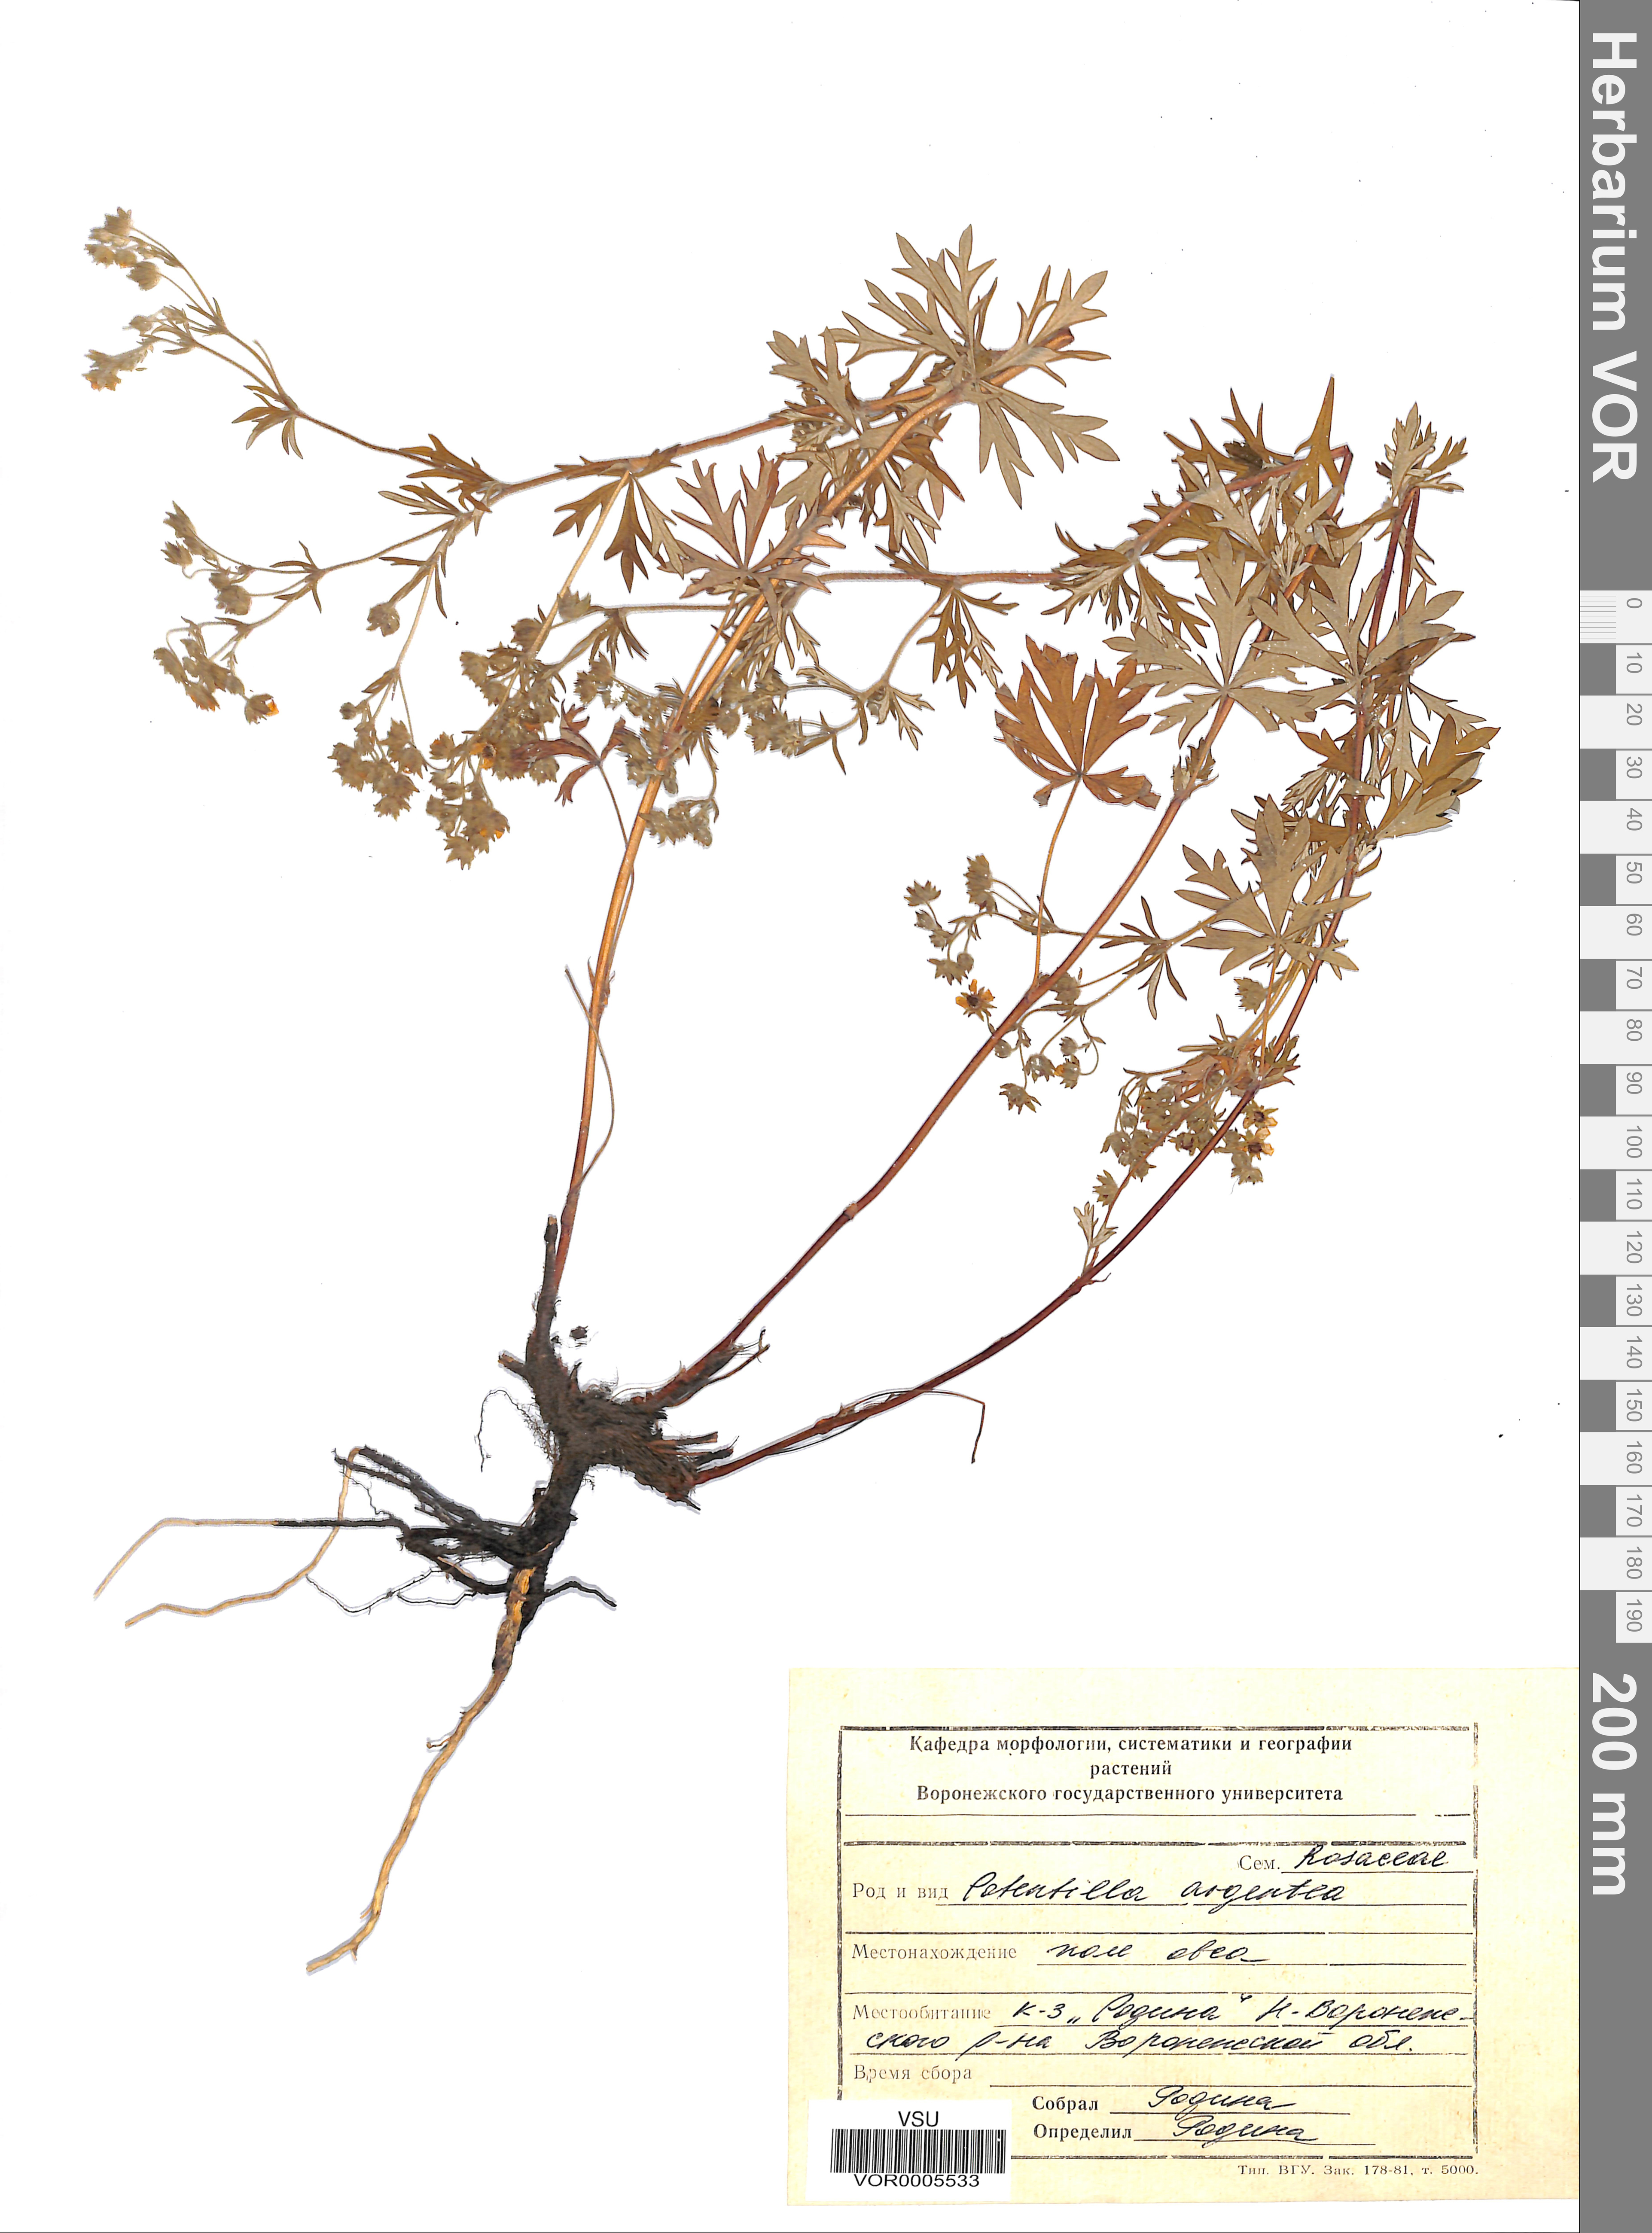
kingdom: Plantae
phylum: Tracheophyta
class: Magnoliopsida
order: Rosales
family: Rosaceae
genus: Potentilla
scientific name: Potentilla argentea
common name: Hoary cinquefoil
